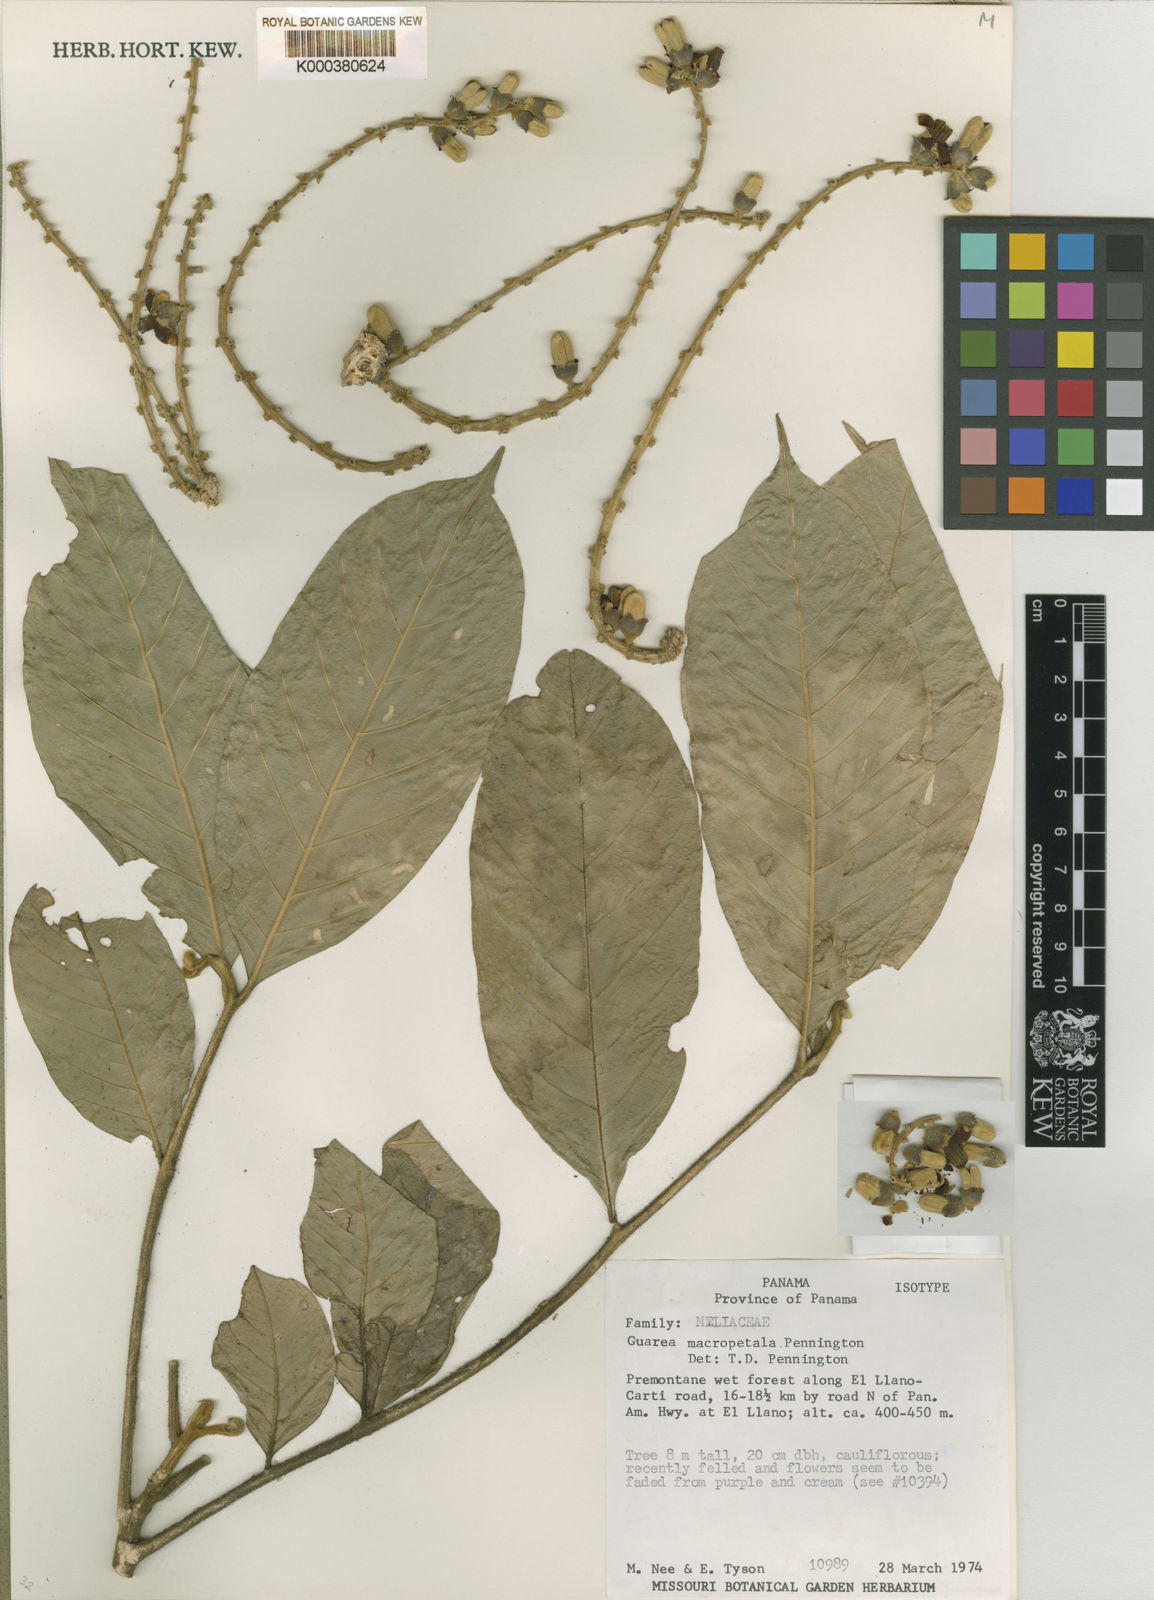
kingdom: Plantae
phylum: Tracheophyta
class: Magnoliopsida
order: Sapindales
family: Meliaceae
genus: Guarea
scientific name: Guarea hoffmanniana
